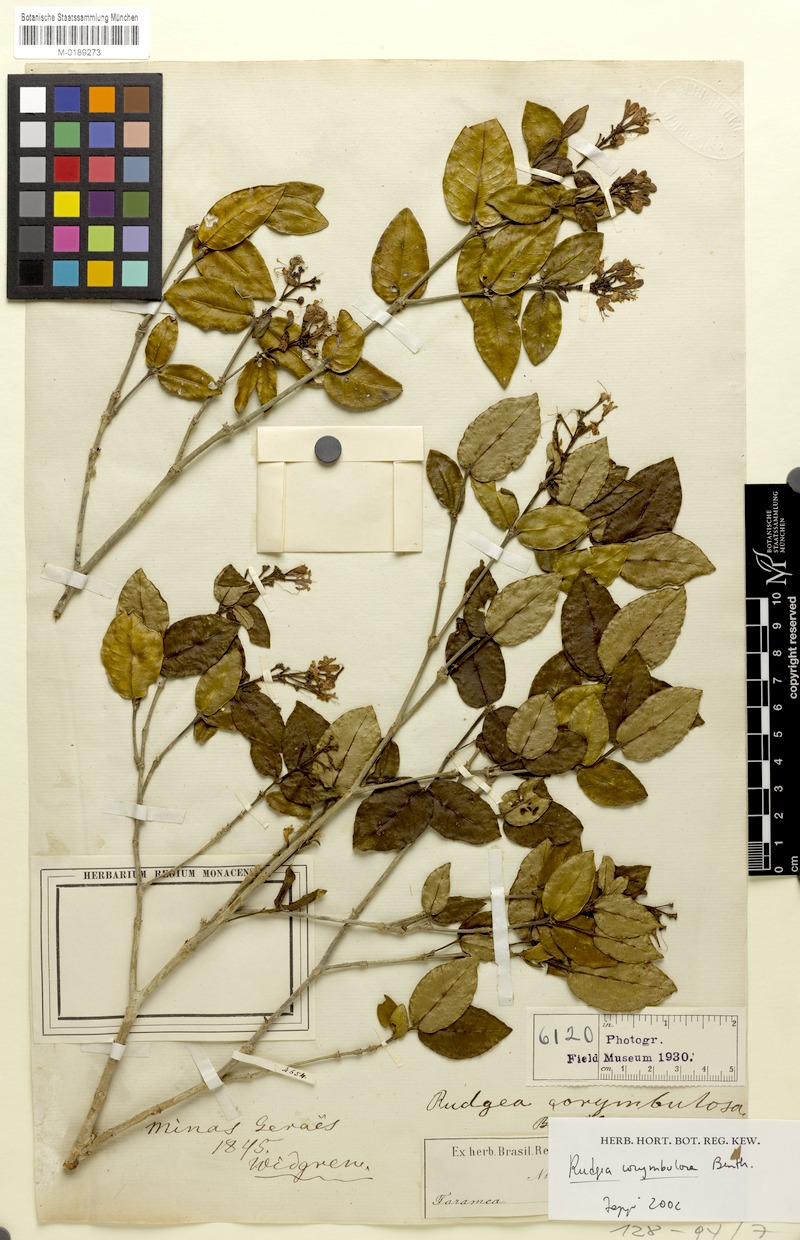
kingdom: Plantae
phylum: Tracheophyta
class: Magnoliopsida
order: Gentianales
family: Rubiaceae
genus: Rudgea
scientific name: Rudgea corymbulosa
